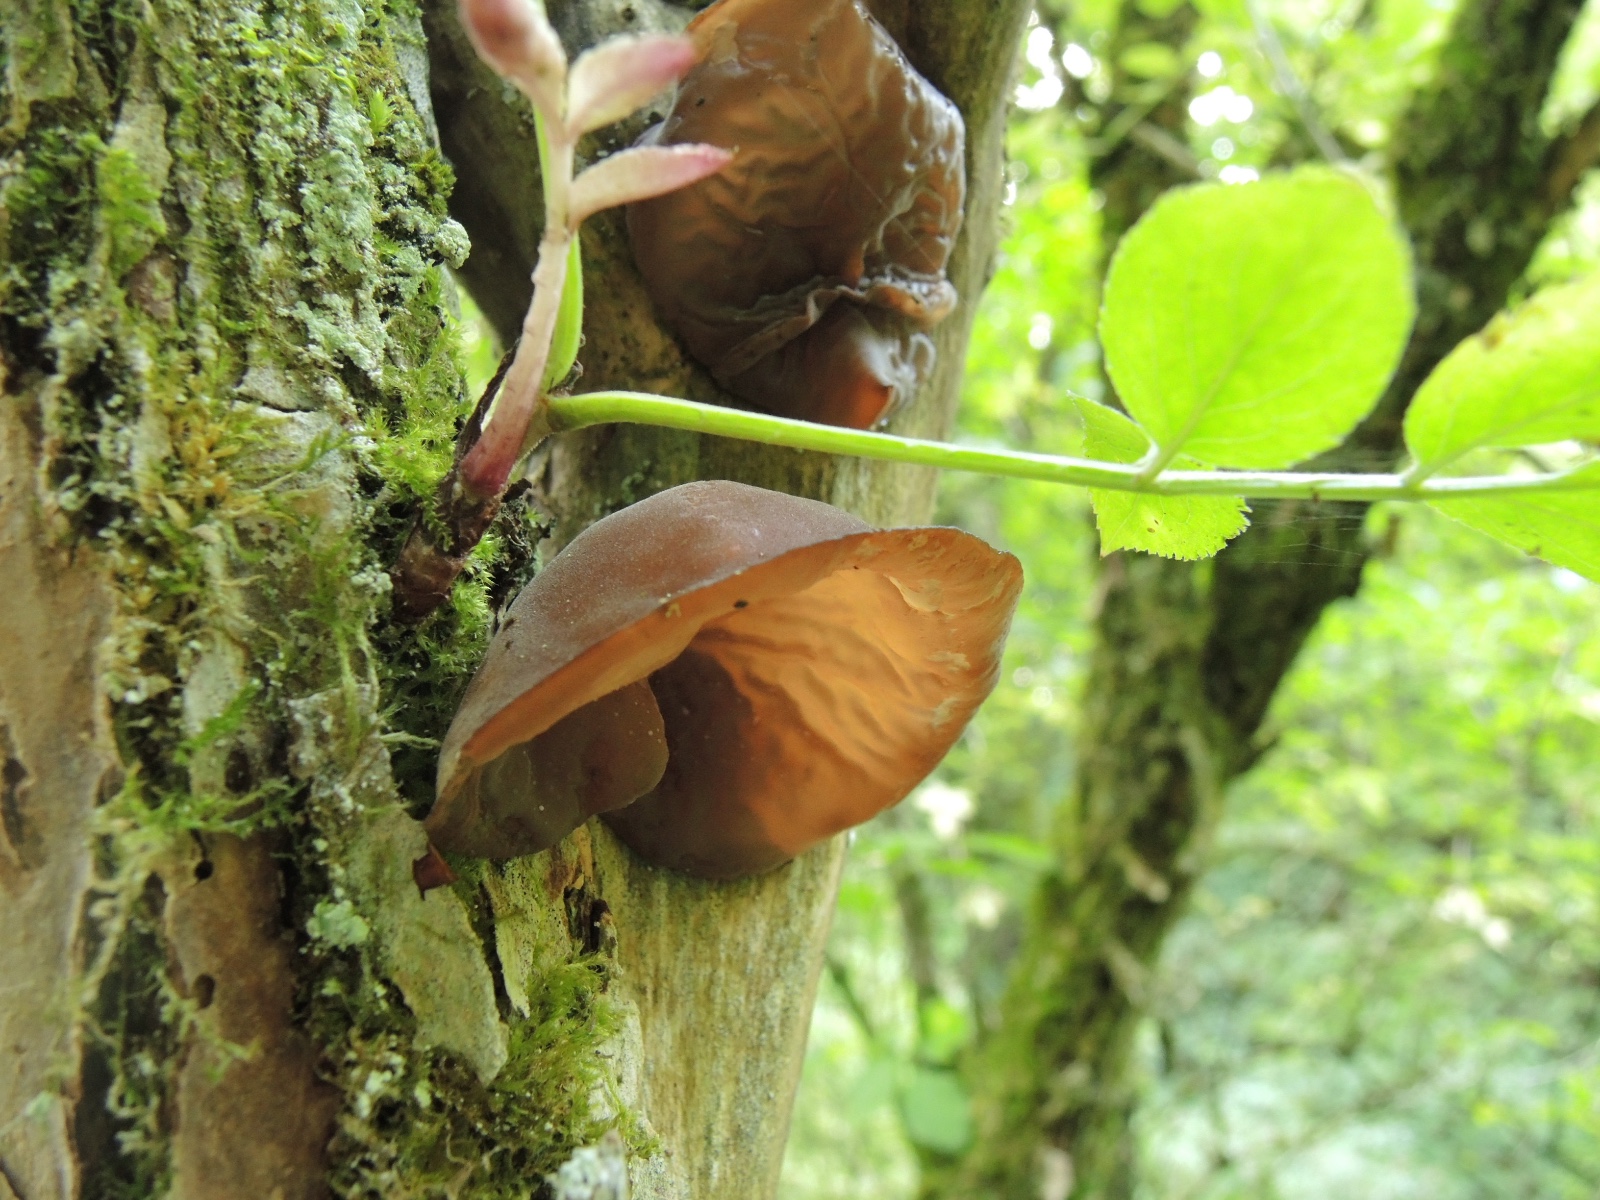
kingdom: Fungi
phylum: Basidiomycota
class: Agaricomycetes
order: Auriculariales
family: Auriculariaceae
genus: Auricularia
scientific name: Auricularia auricula-judae
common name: almindelig judasøre
